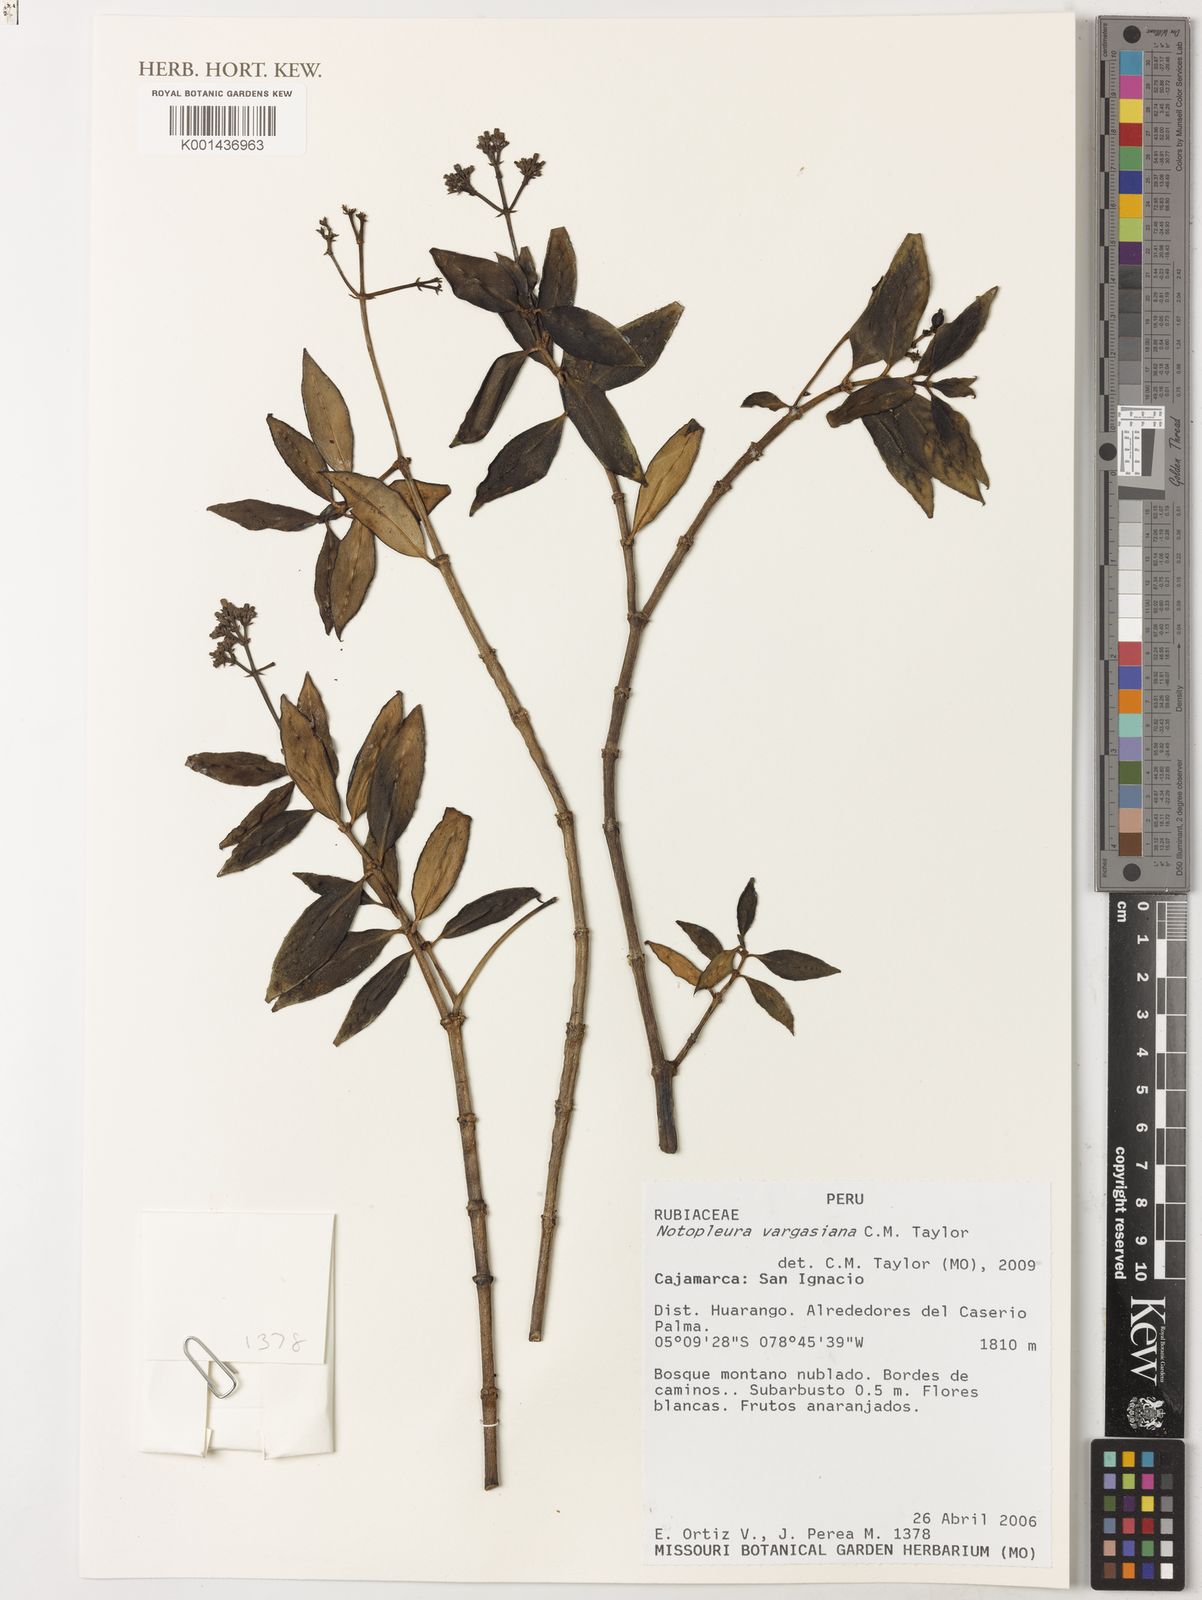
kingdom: Plantae
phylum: Tracheophyta
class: Magnoliopsida
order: Gentianales
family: Rubiaceae
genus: Notopleura
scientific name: Notopleura vargasiana
